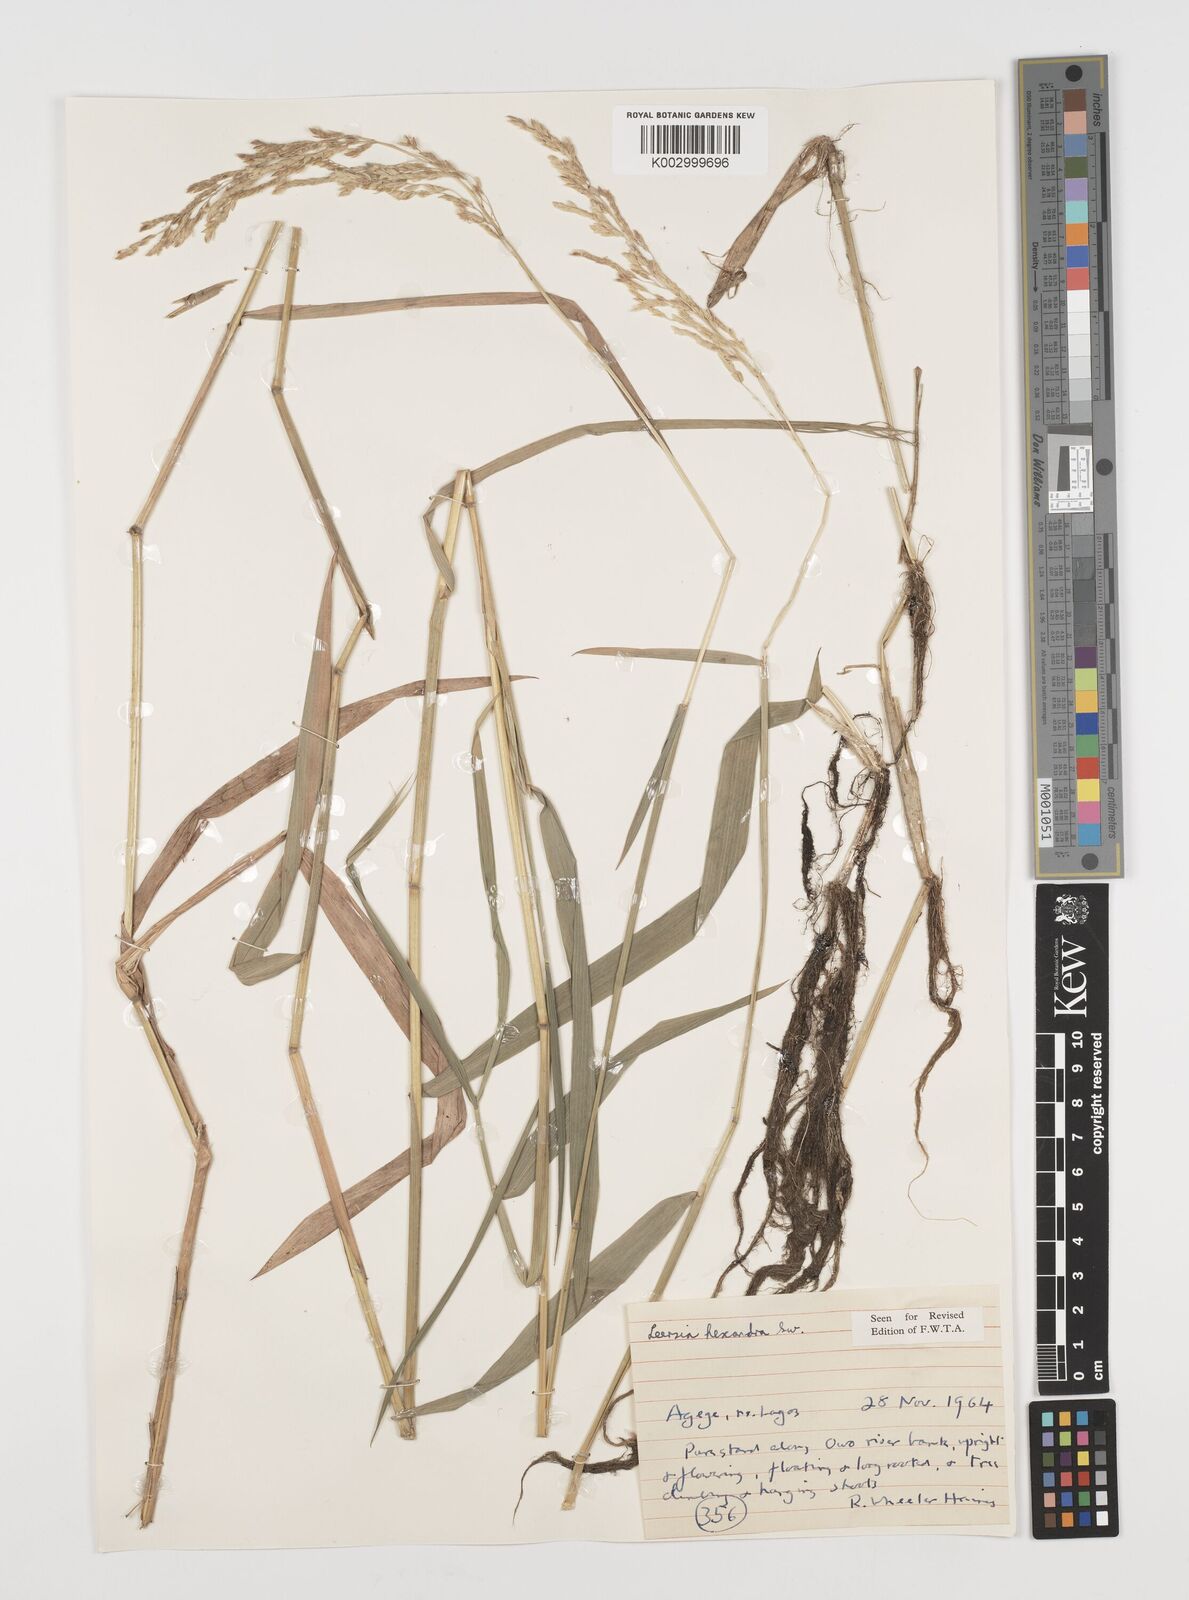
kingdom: Plantae
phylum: Tracheophyta
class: Liliopsida
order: Poales
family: Poaceae
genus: Leersia
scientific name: Leersia hexandra
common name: Southern cut grass
